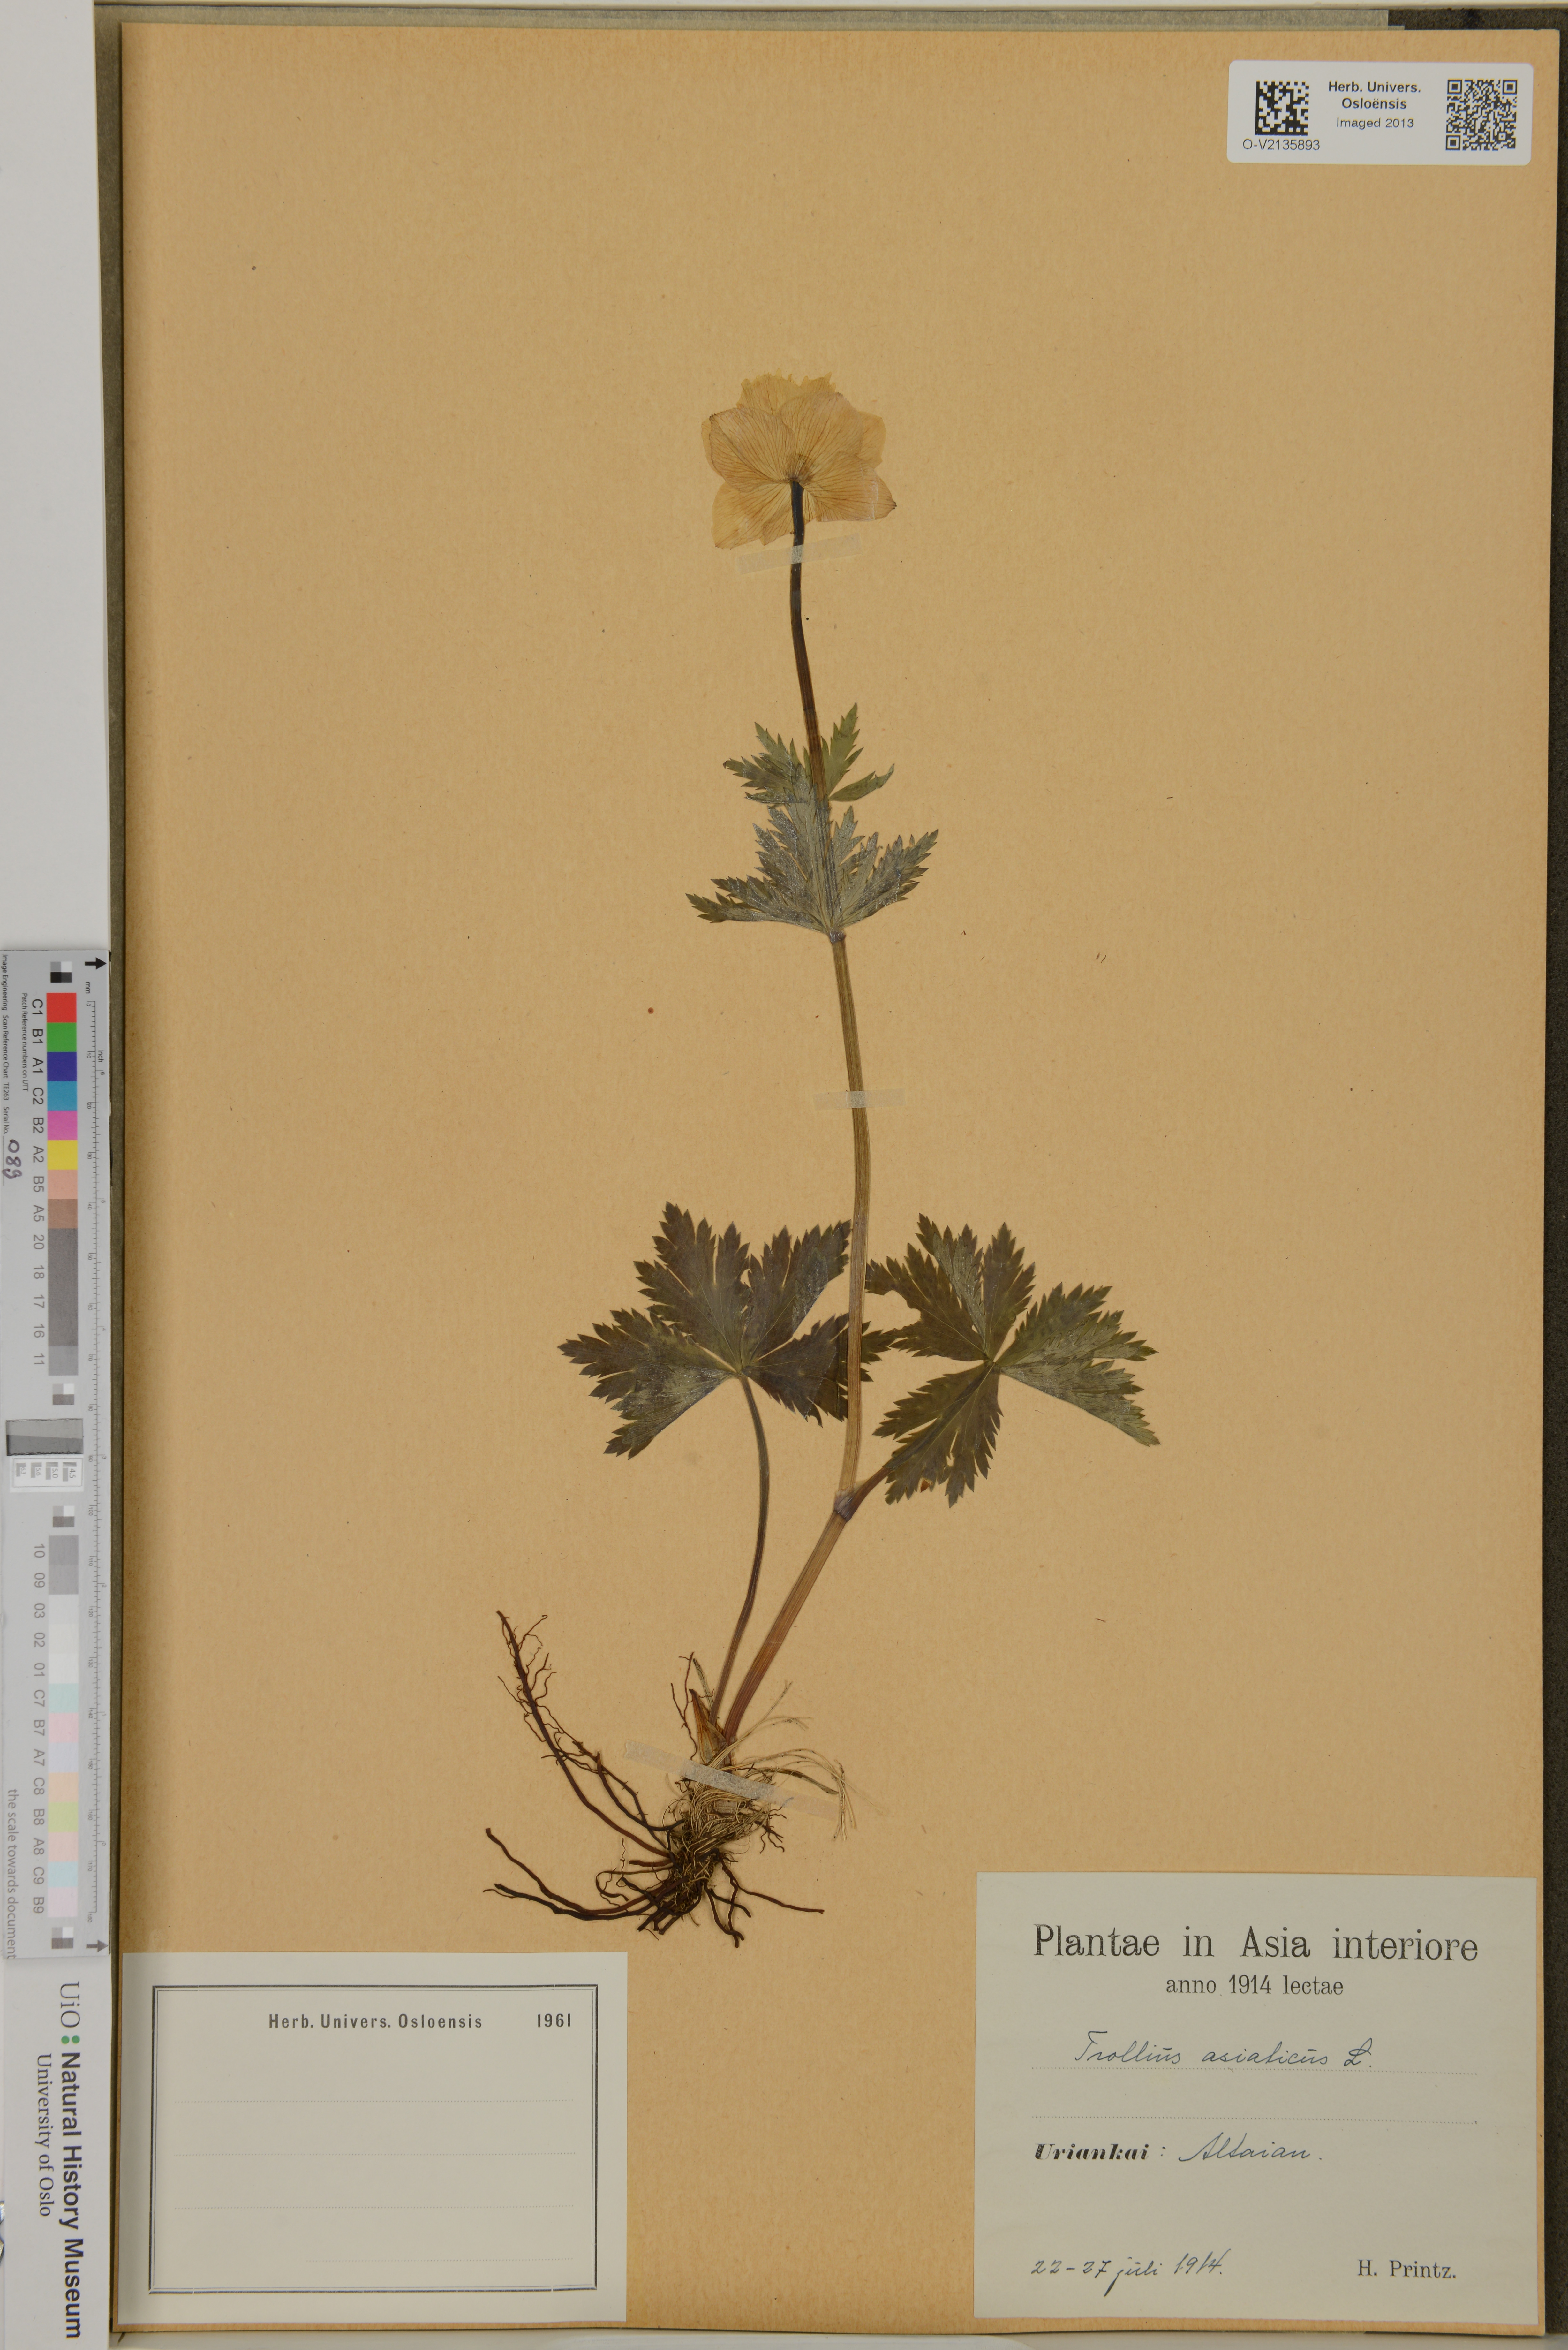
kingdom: Plantae
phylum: Tracheophyta
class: Magnoliopsida
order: Ranunculales
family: Ranunculaceae
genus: Trollius
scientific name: Trollius asiaticus
